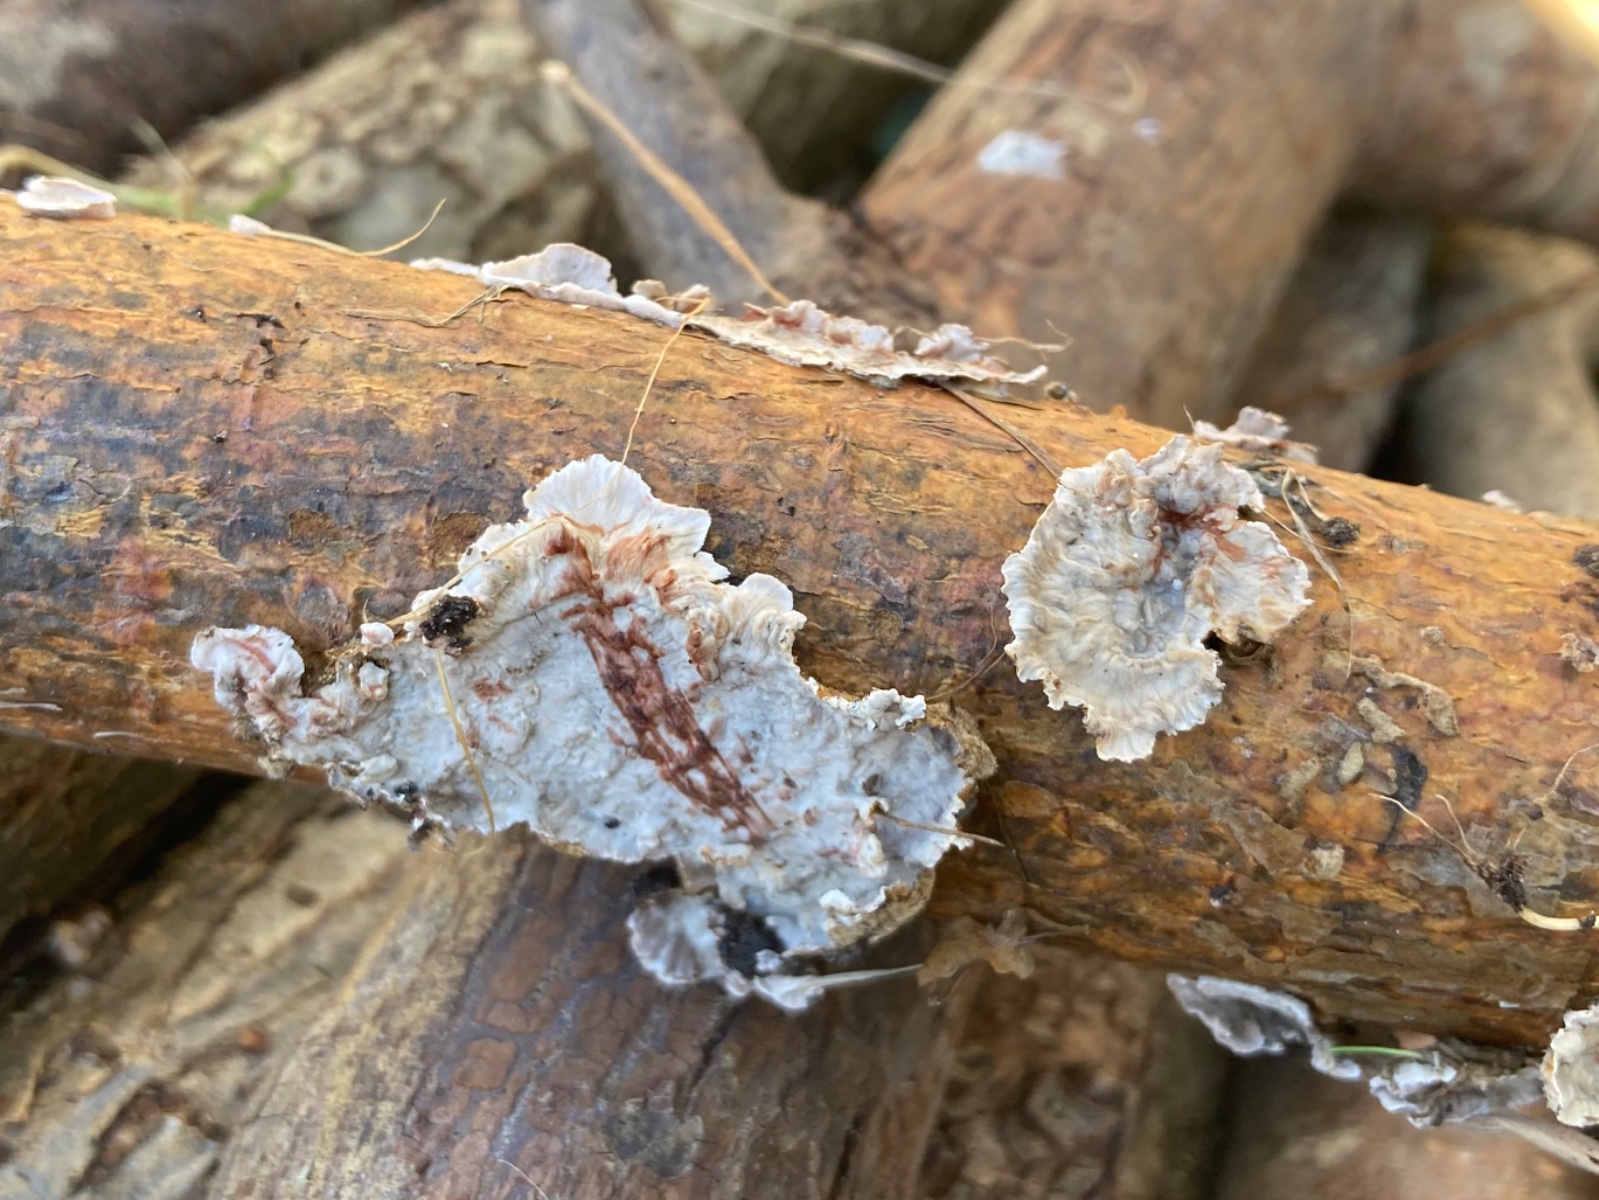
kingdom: Fungi
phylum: Basidiomycota
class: Agaricomycetes
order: Russulales
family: Stereaceae
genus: Stereum
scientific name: Stereum sanguinolentum
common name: blødende lædersvamp
